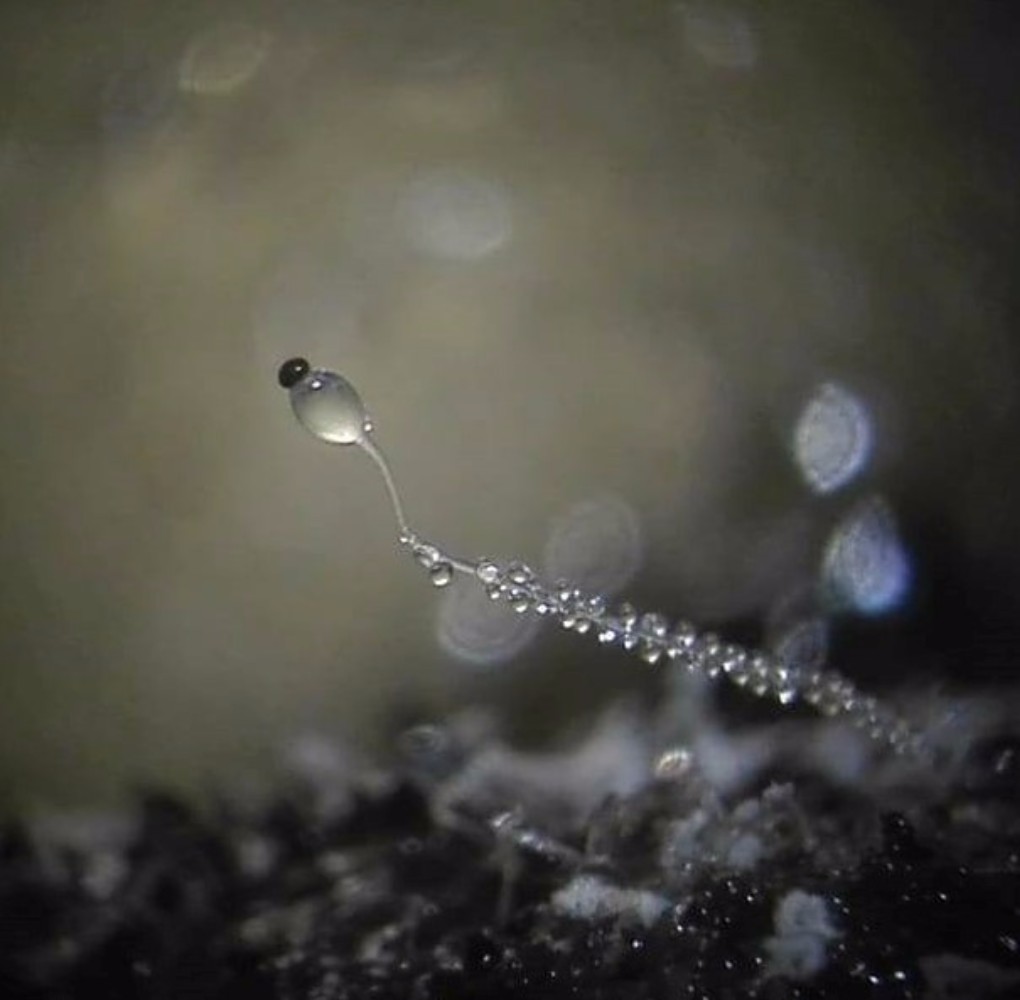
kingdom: Fungi
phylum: Mucoromycota
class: Mucoromycetes
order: Mucorales
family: Pilobolaceae
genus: Pilobolus
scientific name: Pilobolus
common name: boldkaster
